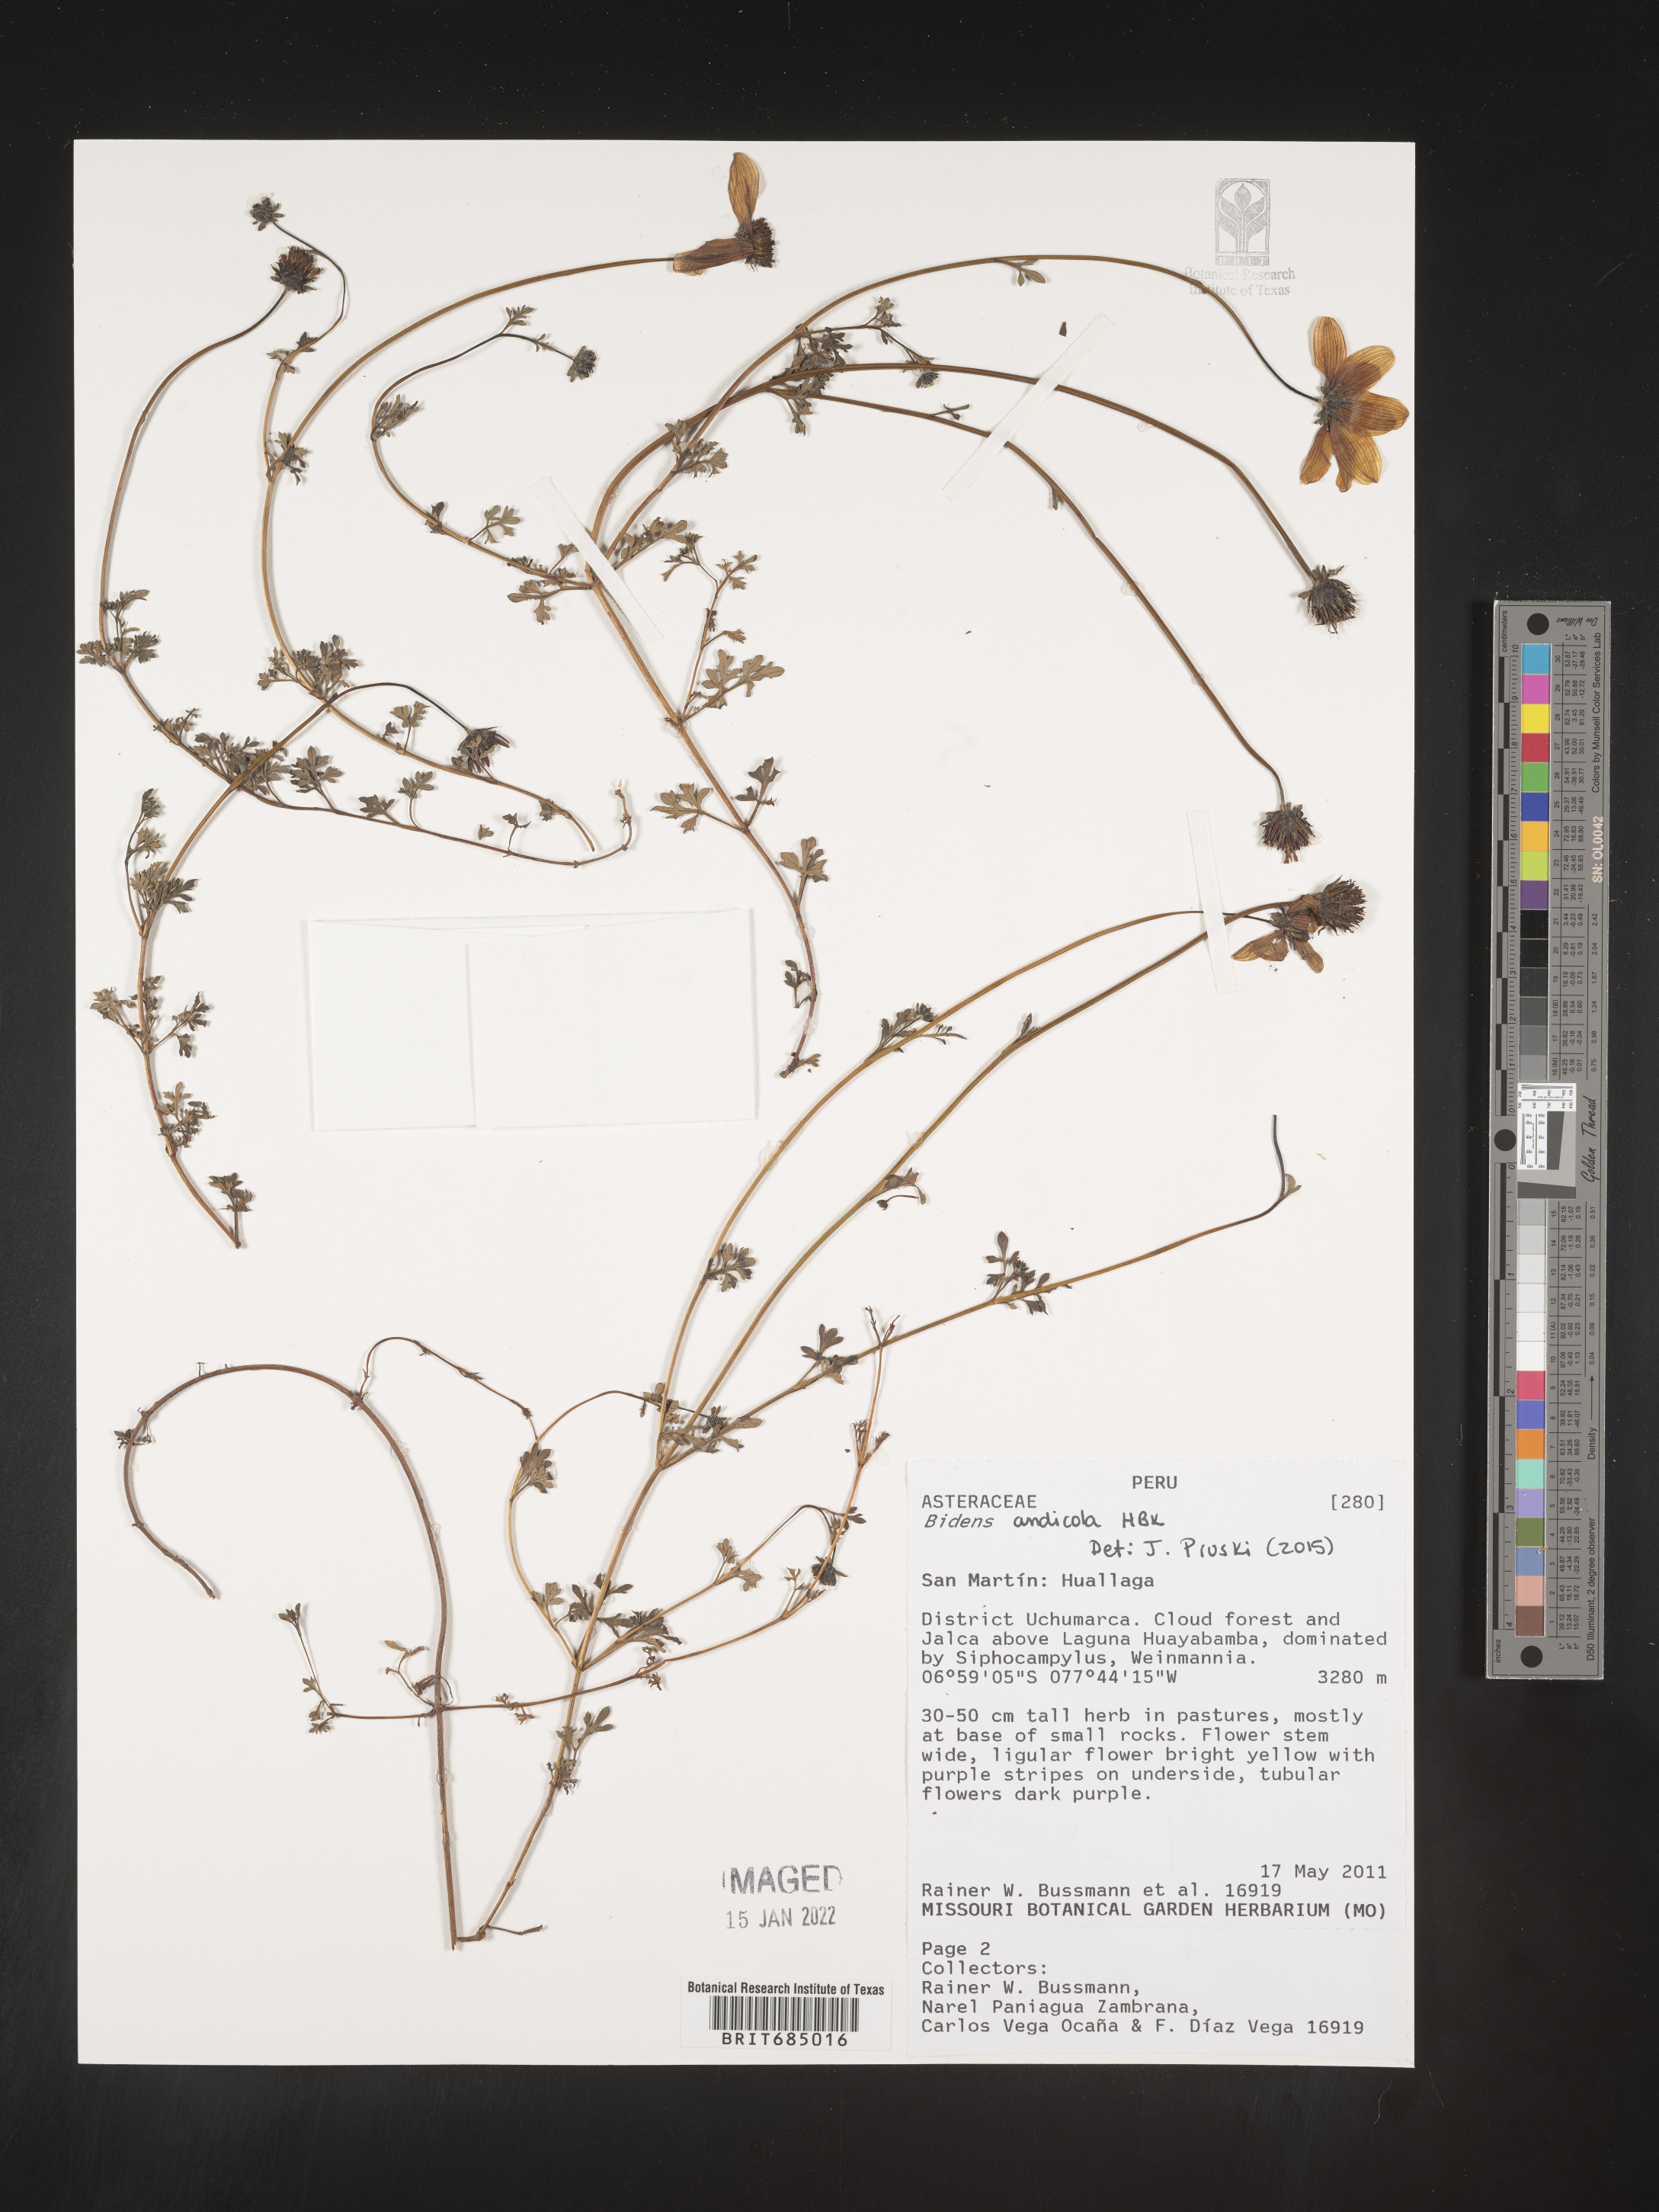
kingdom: Plantae
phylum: Tracheophyta
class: Magnoliopsida
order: Asterales
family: Asteraceae
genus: Bidens
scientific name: Bidens
